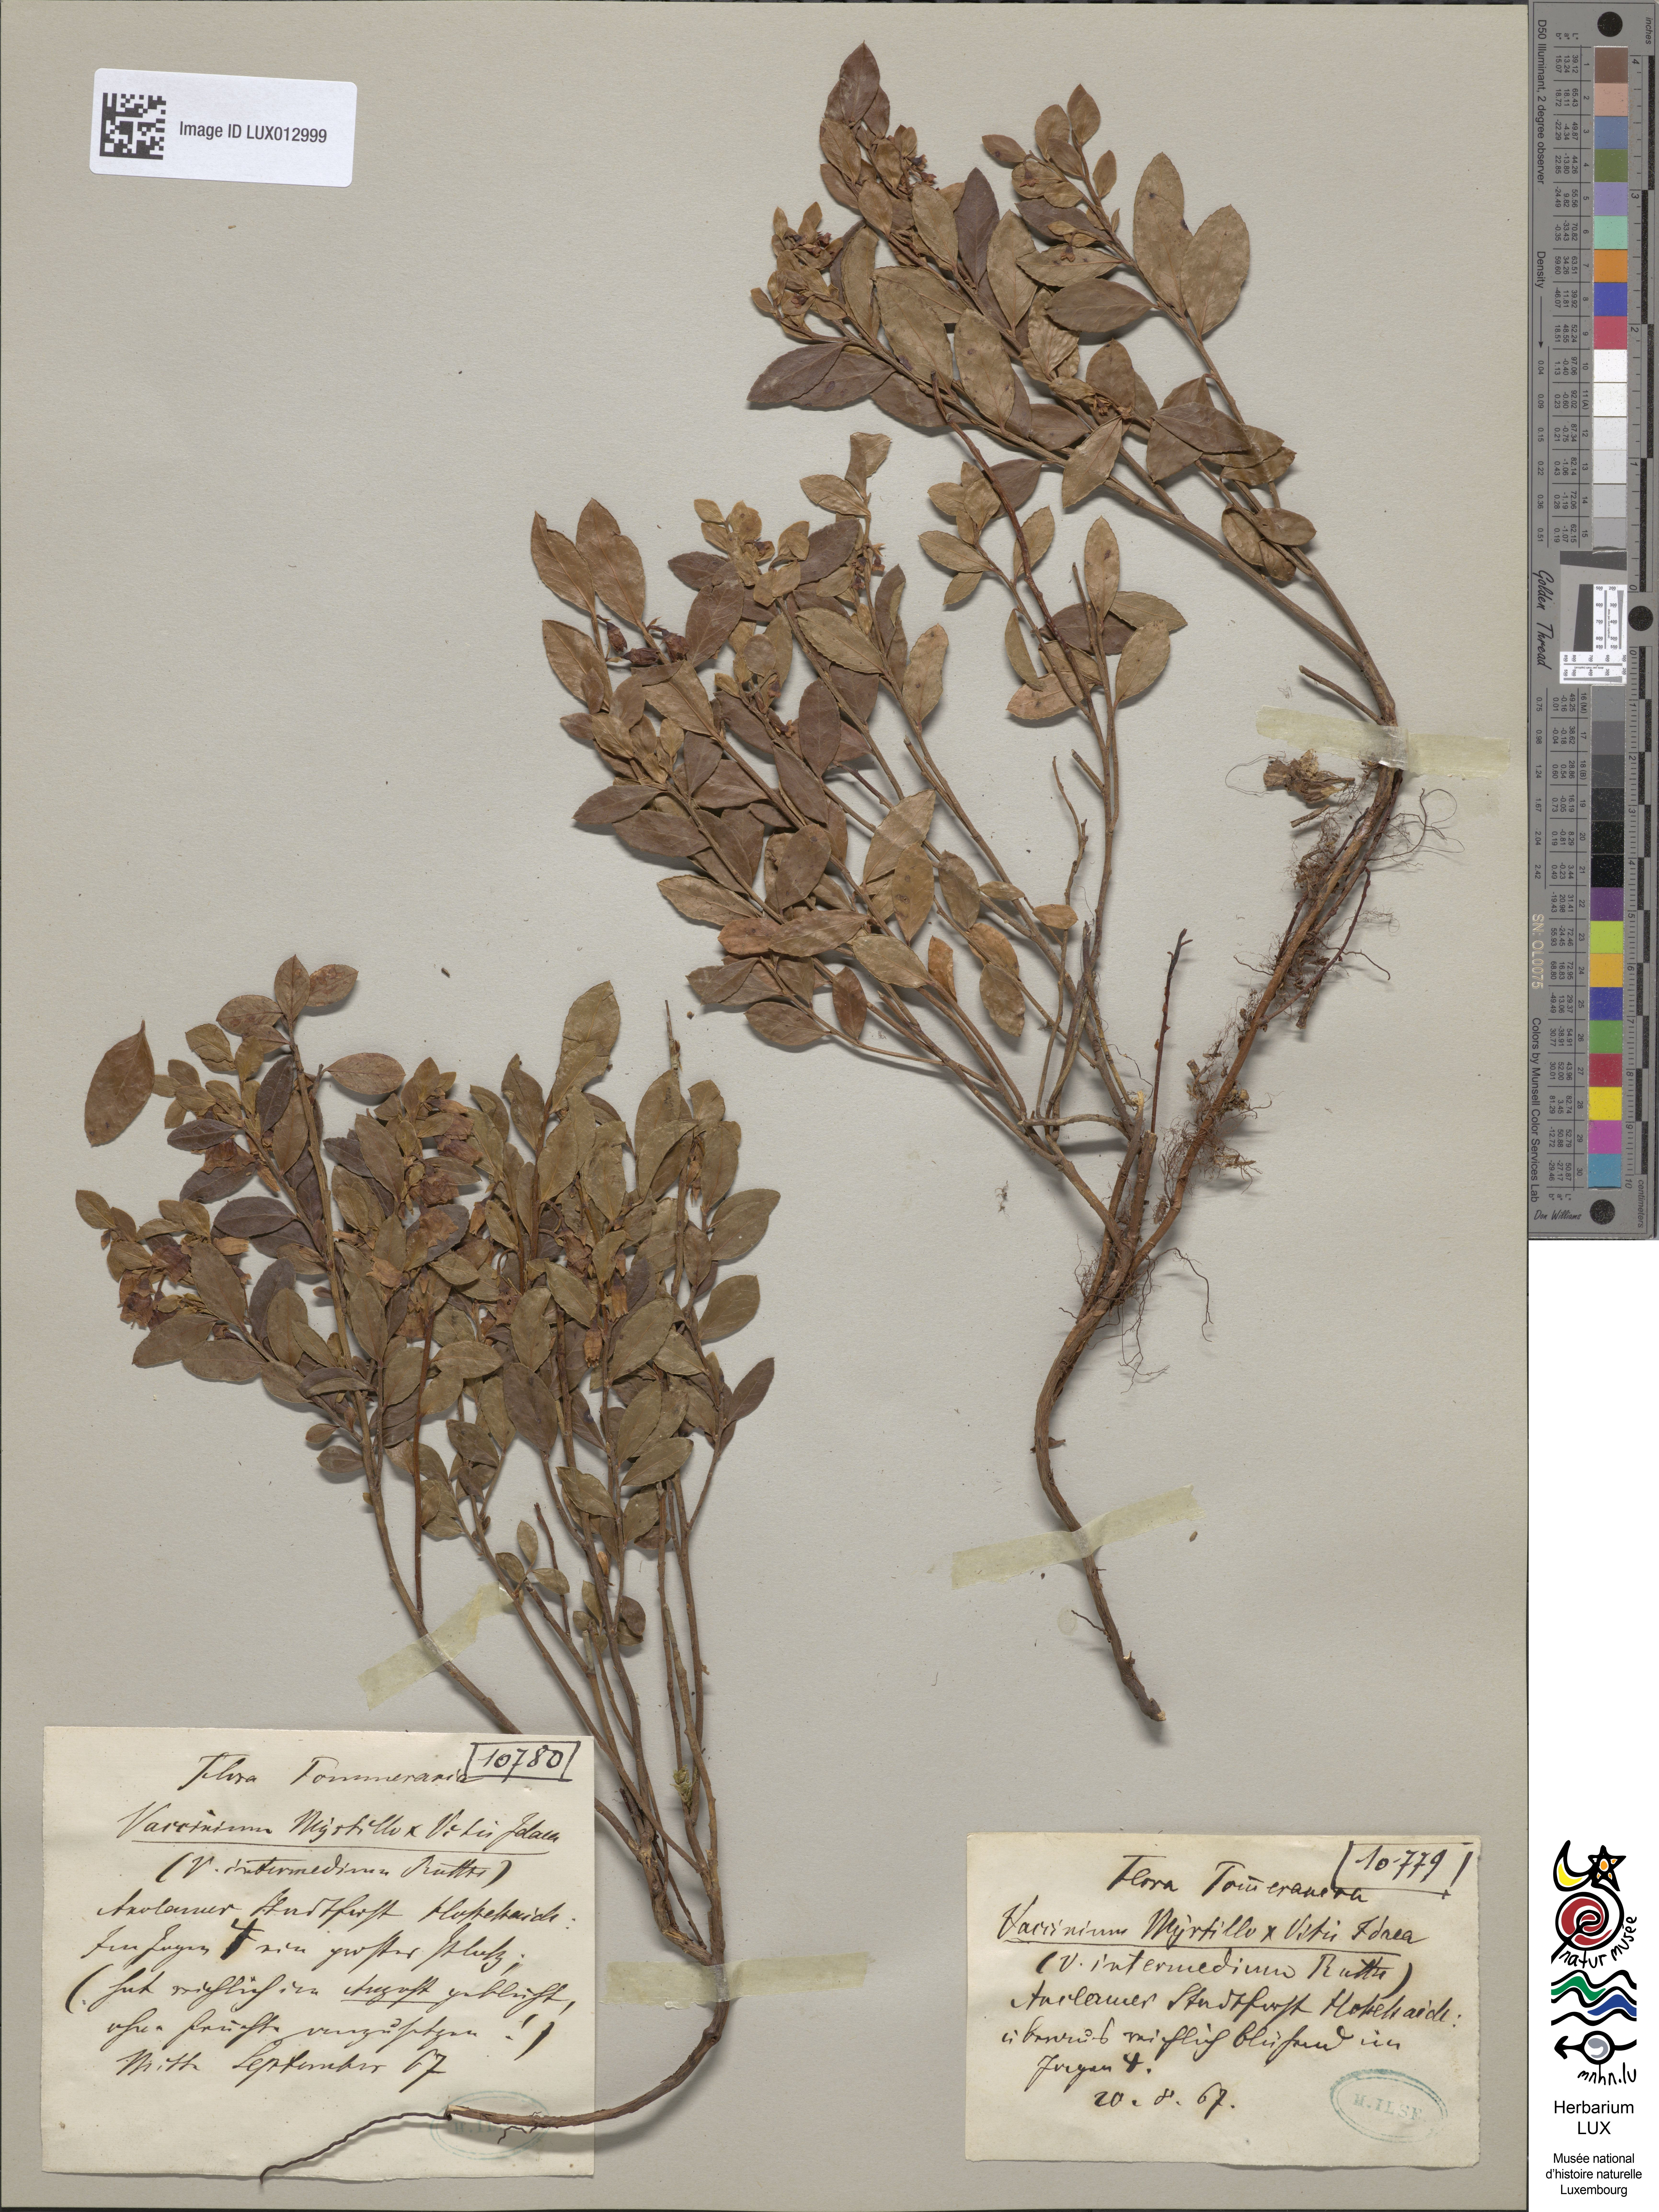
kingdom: Plantae
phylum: Tracheophyta
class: Magnoliopsida
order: Ericales
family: Ericaceae
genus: Vaccinium
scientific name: Vaccinium intermedium
